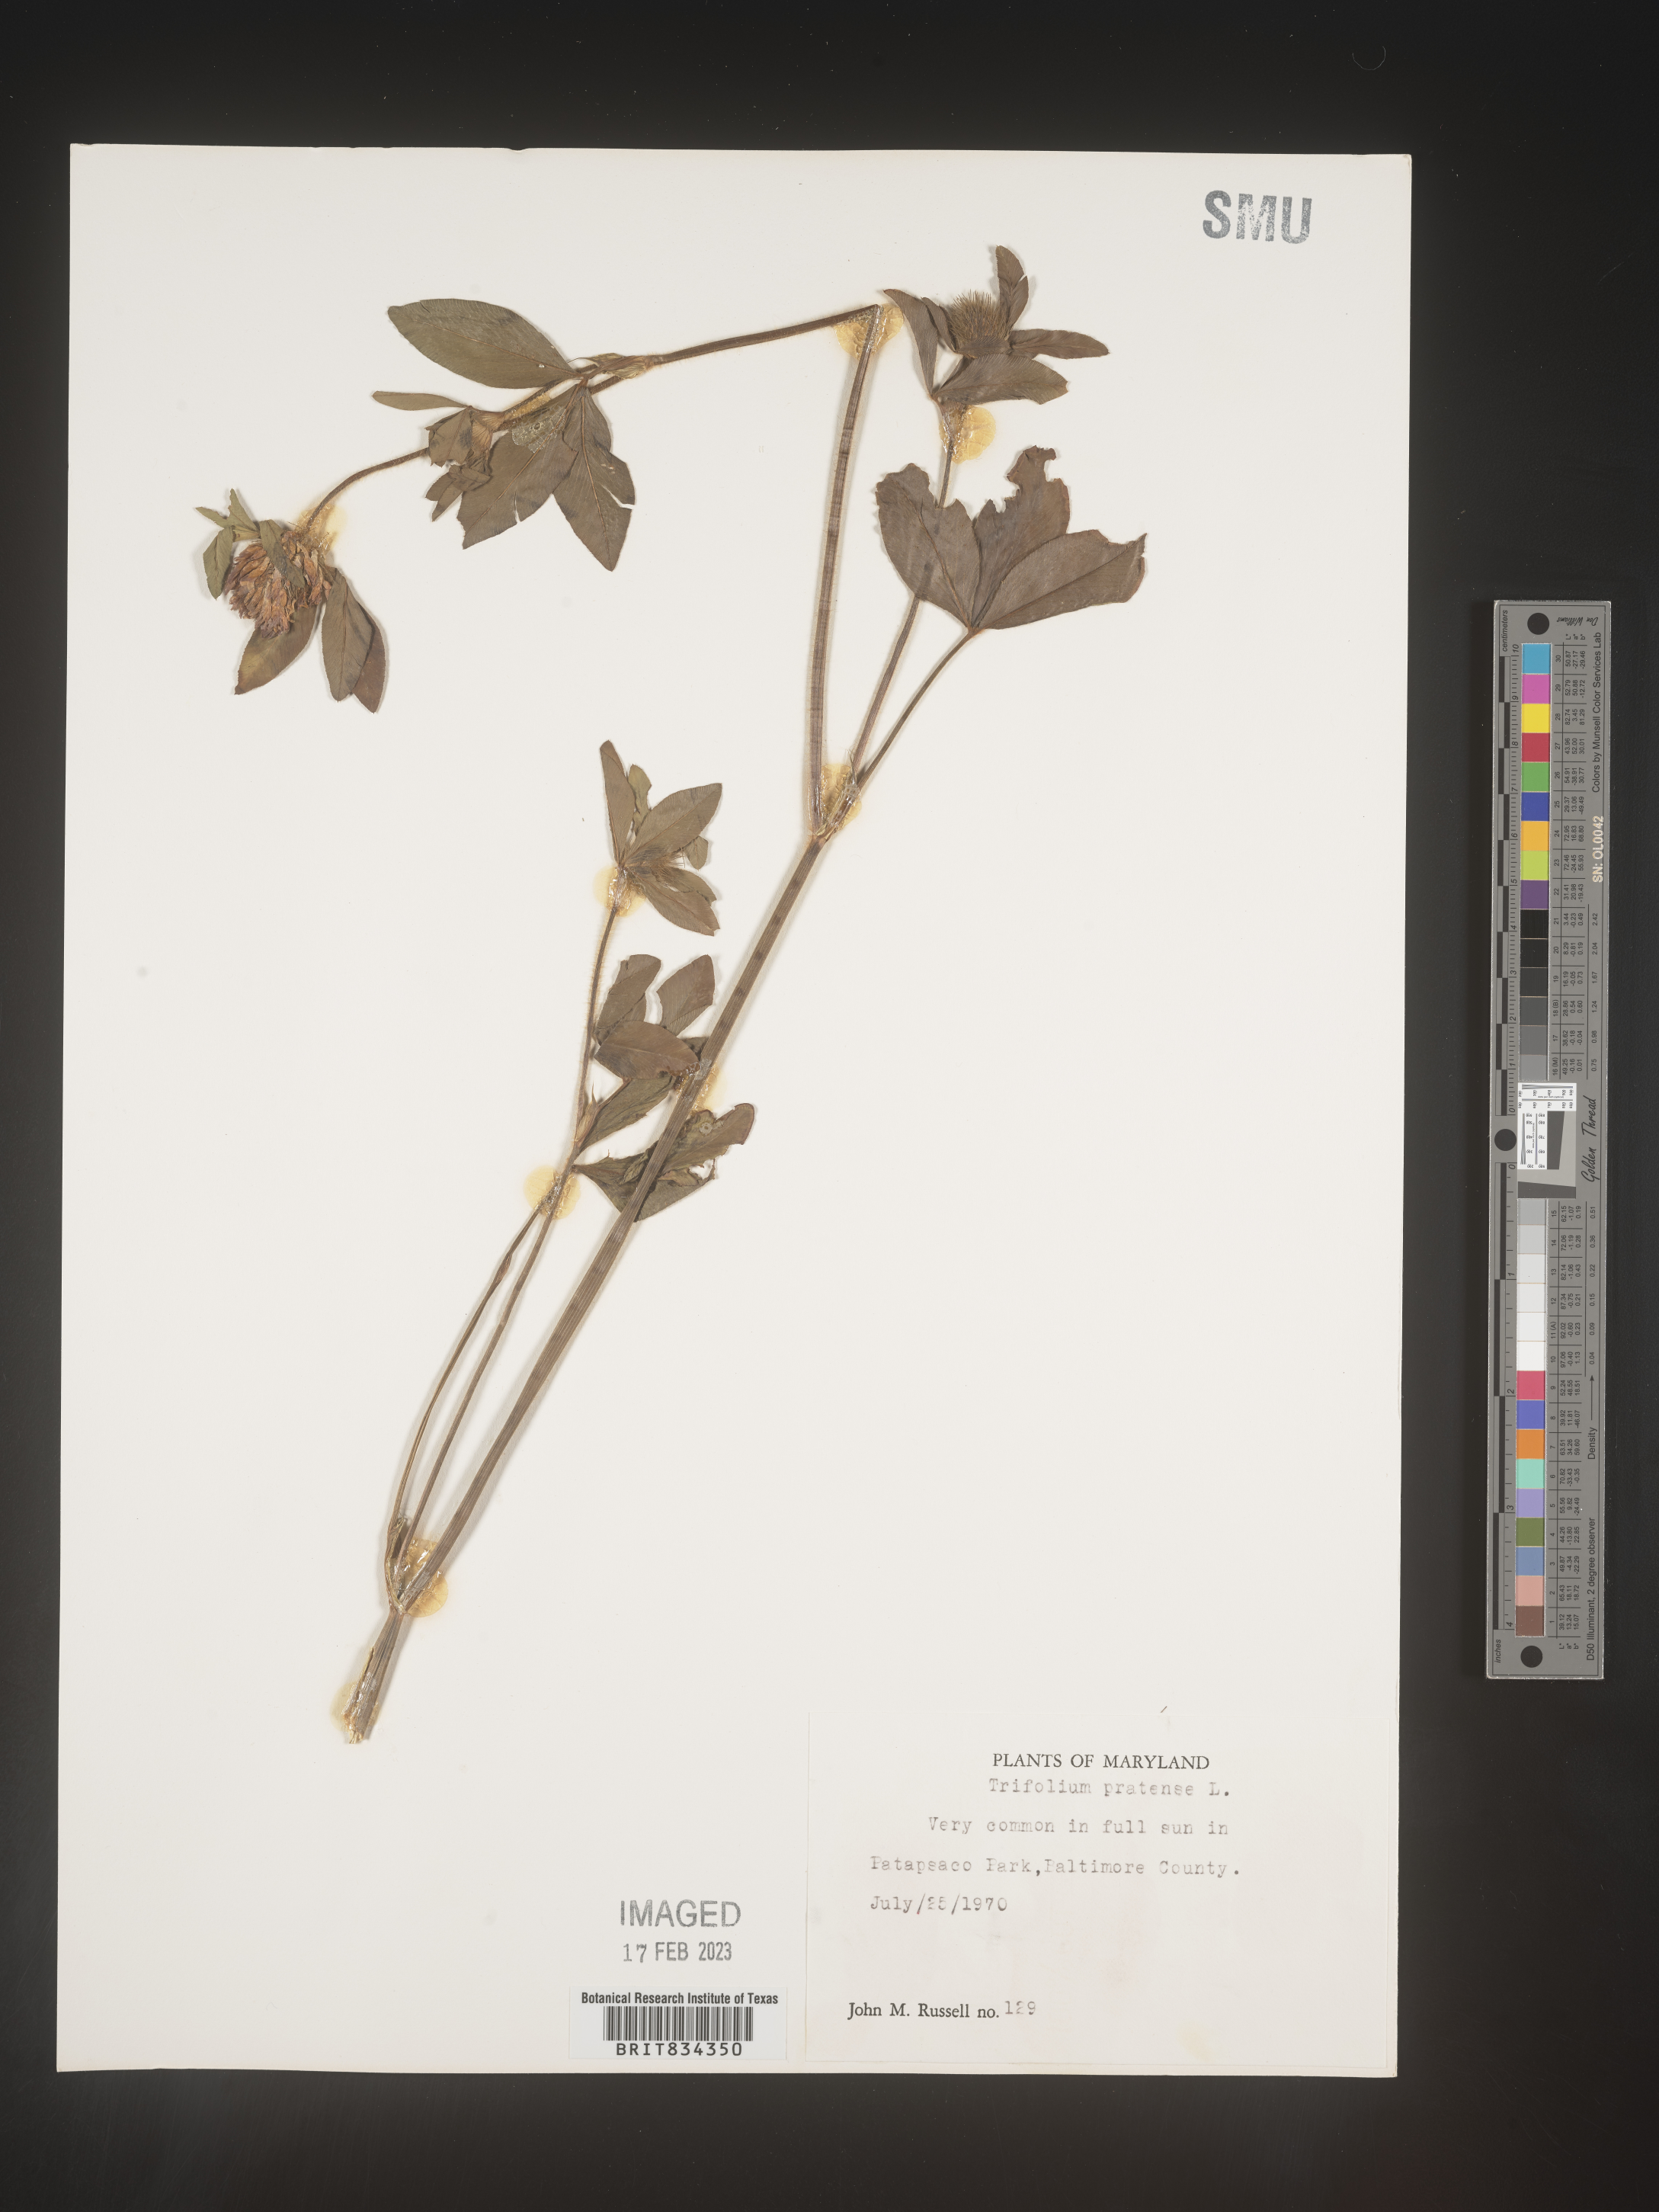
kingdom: Plantae
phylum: Tracheophyta
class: Magnoliopsida
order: Fabales
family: Fabaceae
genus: Trifolium
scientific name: Trifolium pratense
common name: Red clover
